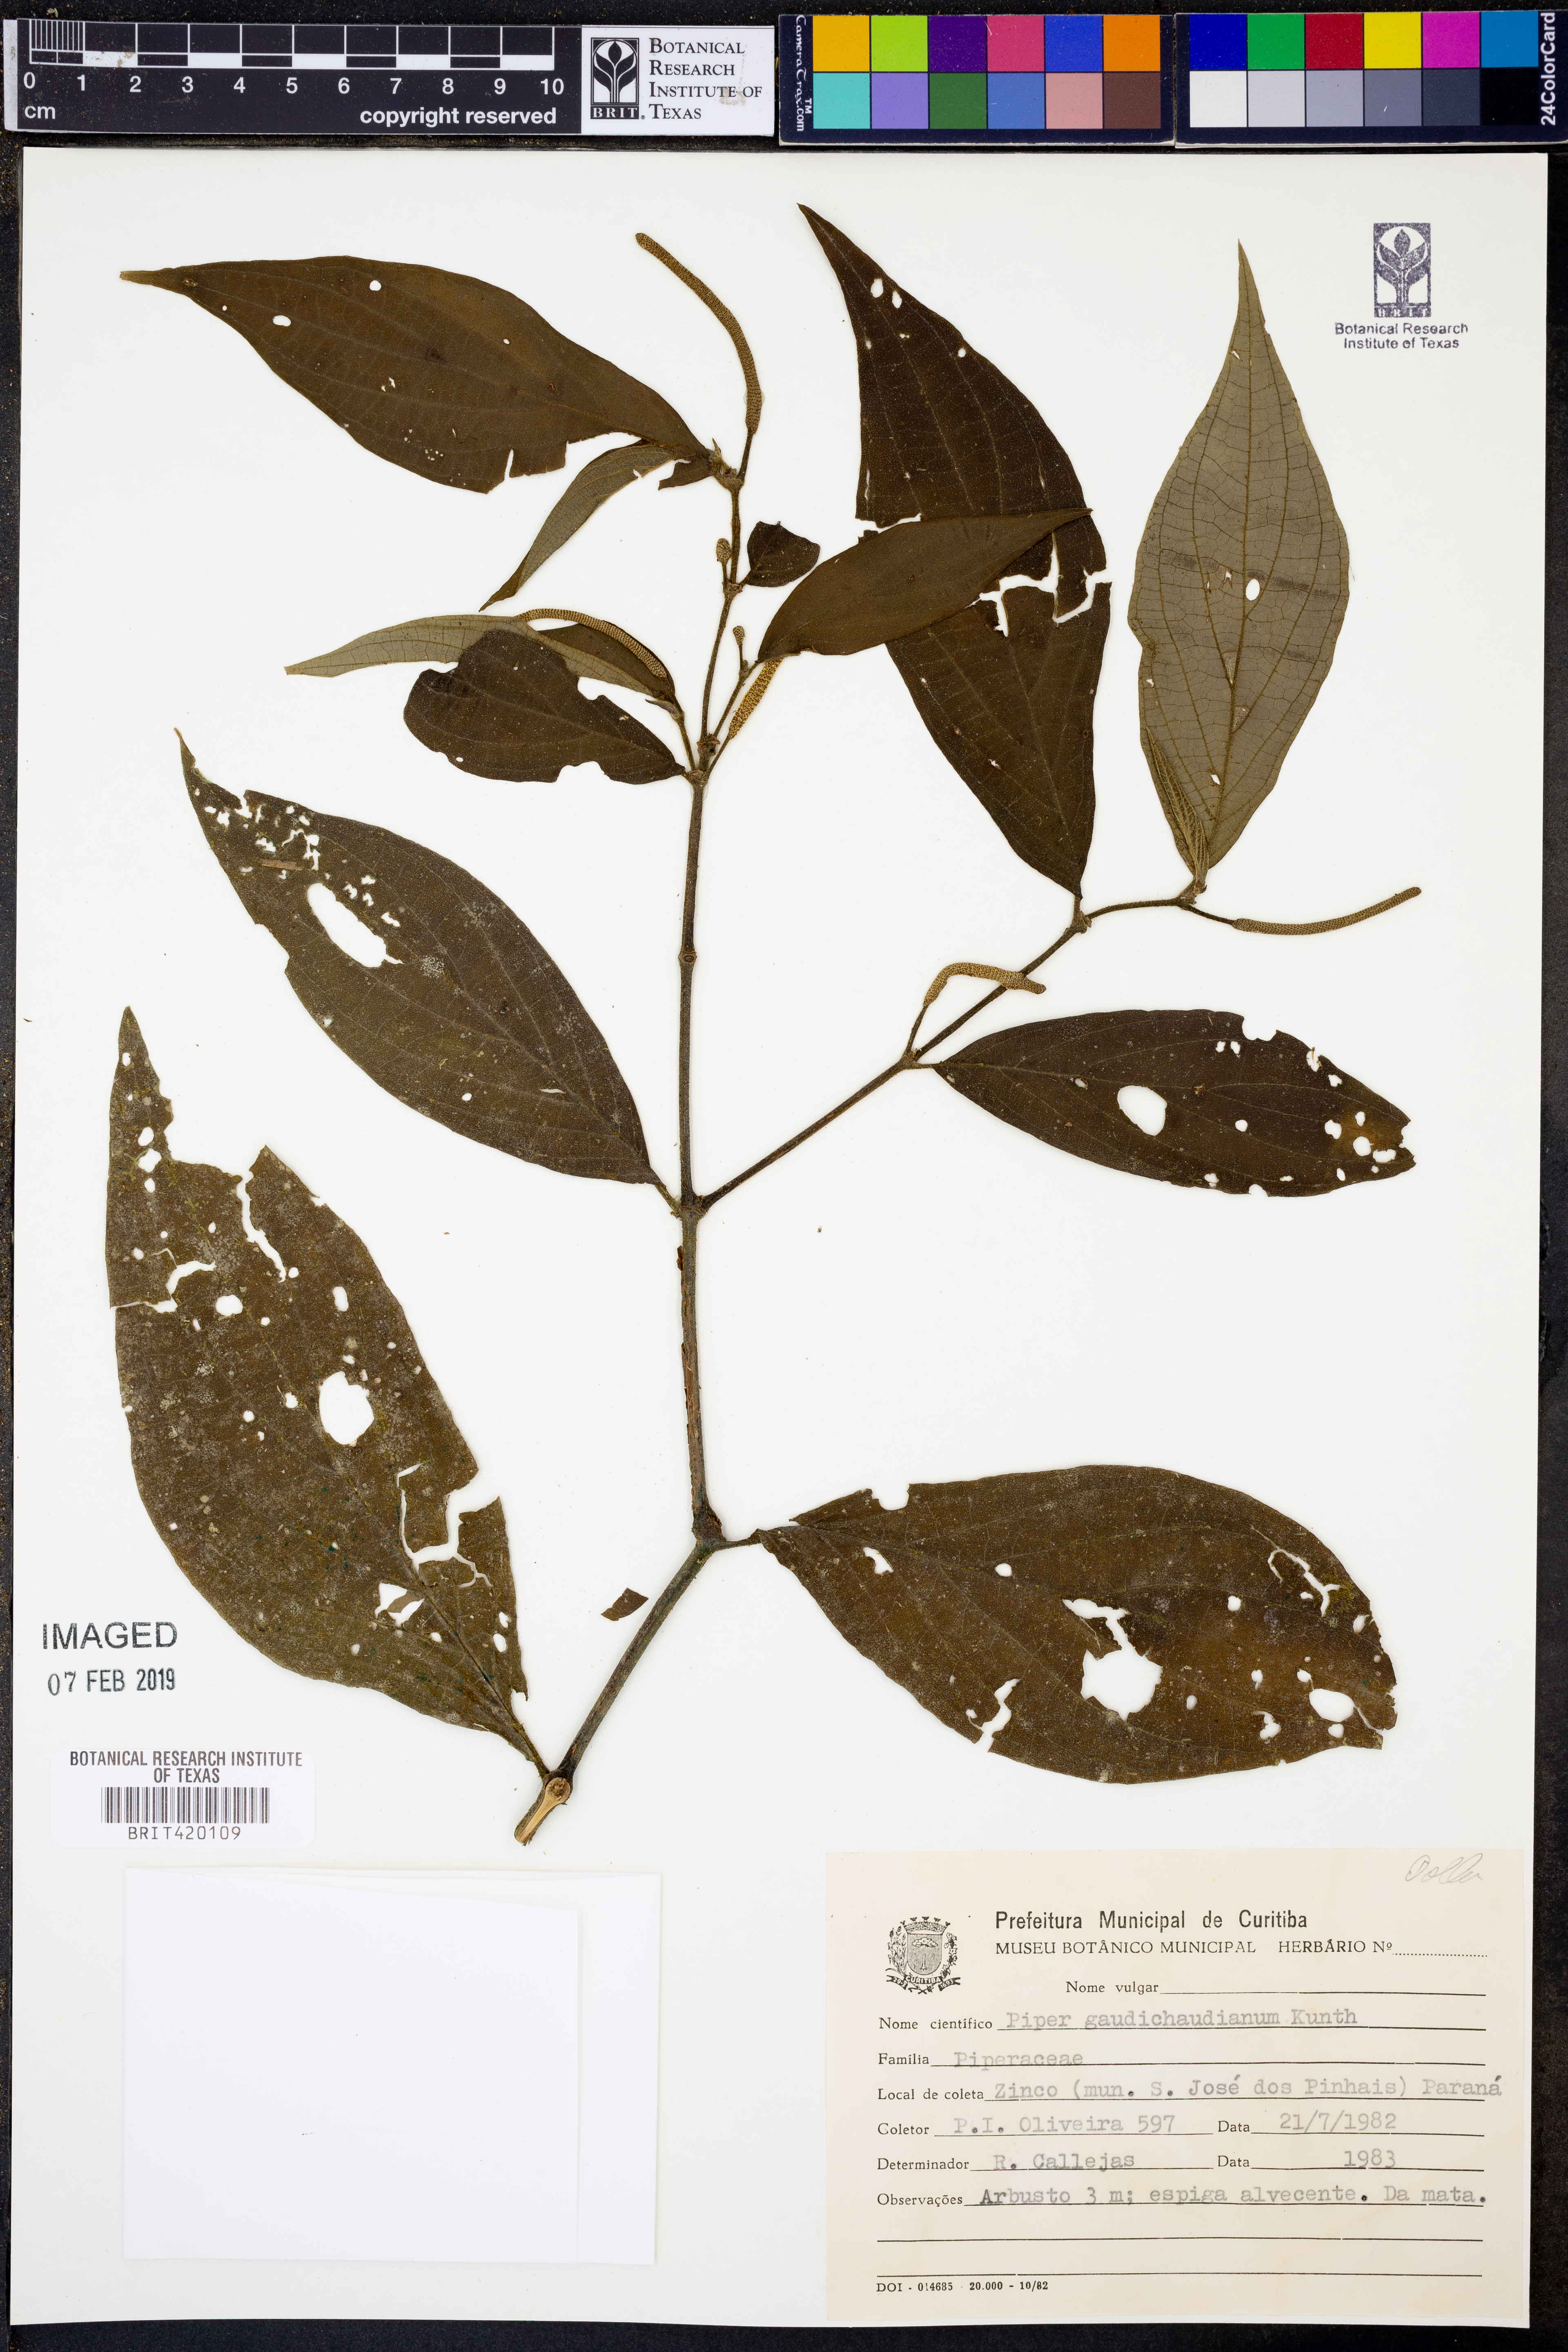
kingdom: Plantae
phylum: Tracheophyta
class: Magnoliopsida
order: Piperales
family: Piperaceae
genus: Piper
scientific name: Piper gaudichaudianum
